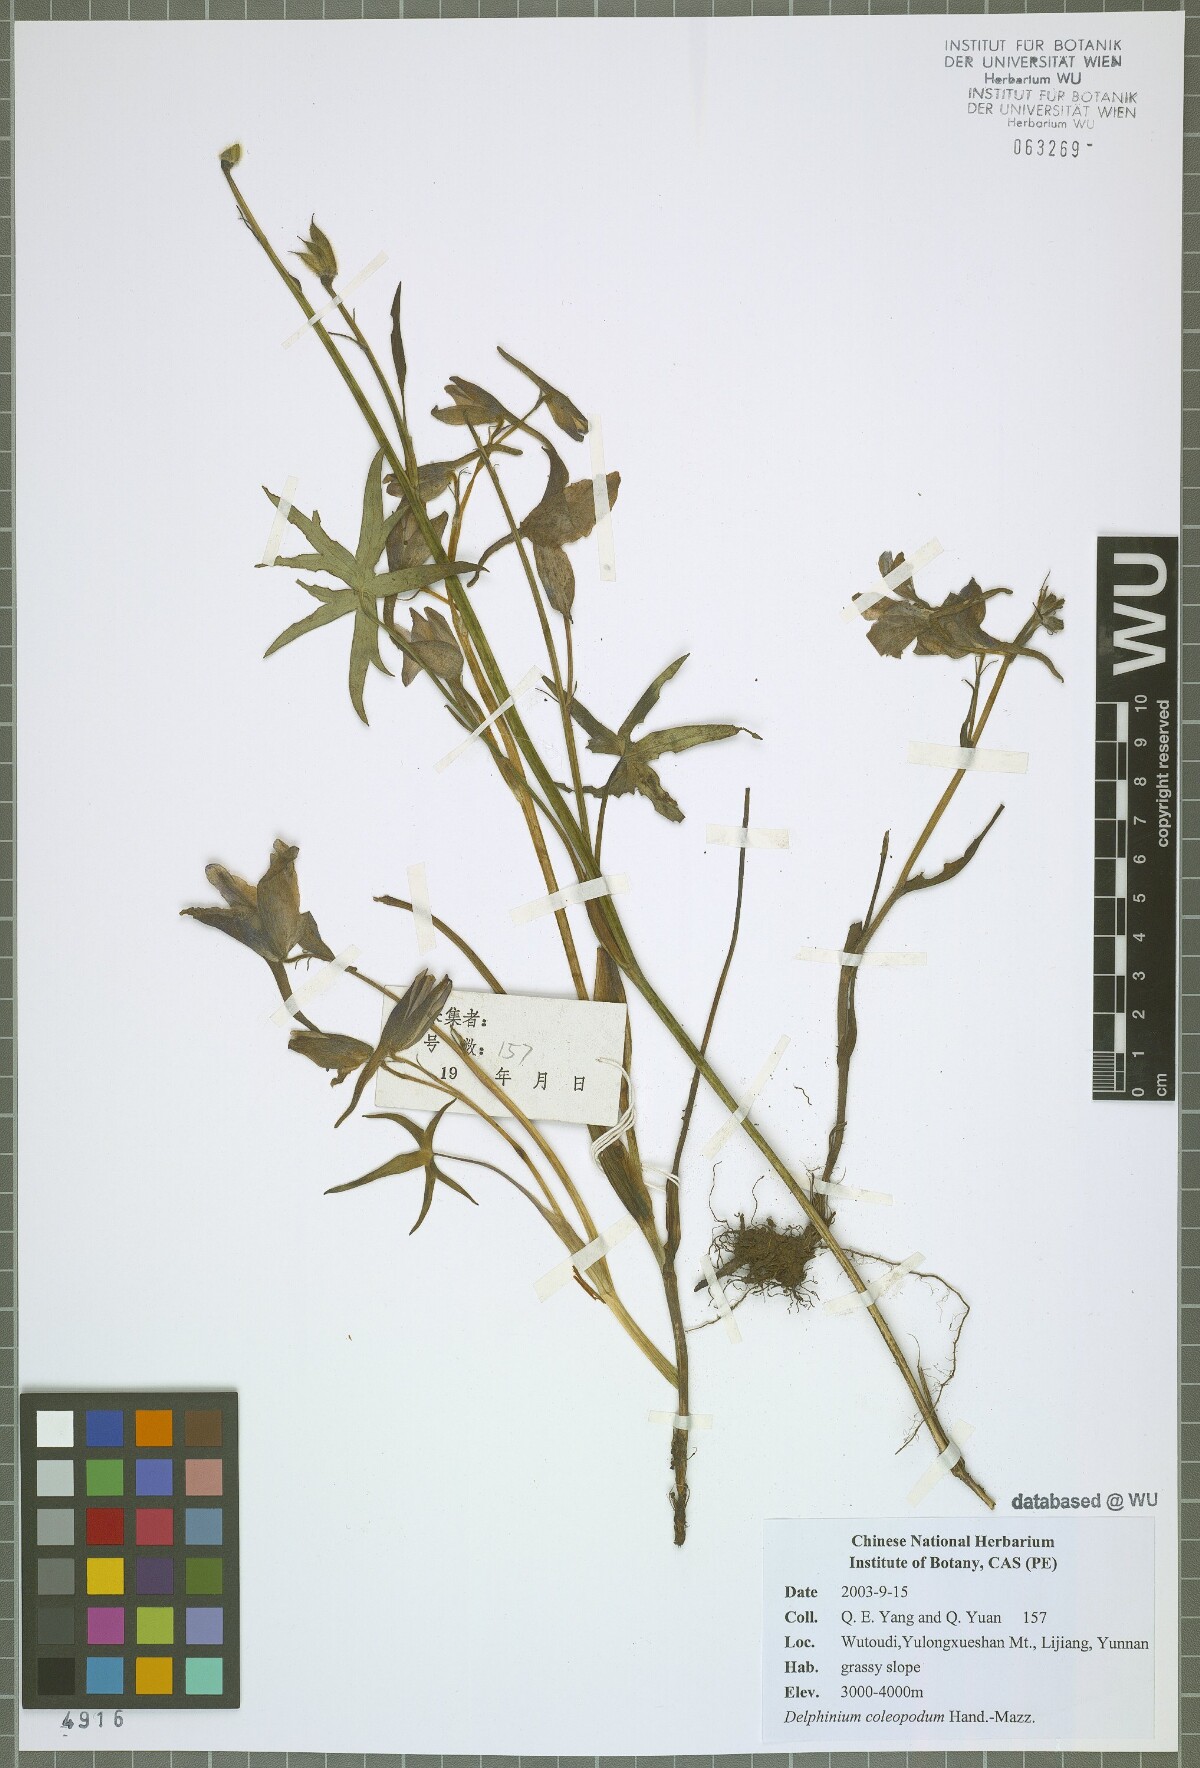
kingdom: Plantae
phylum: Tracheophyta
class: Magnoliopsida
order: Ranunculales
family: Ranunculaceae
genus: Delphinium
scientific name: Delphinium coleopodum
